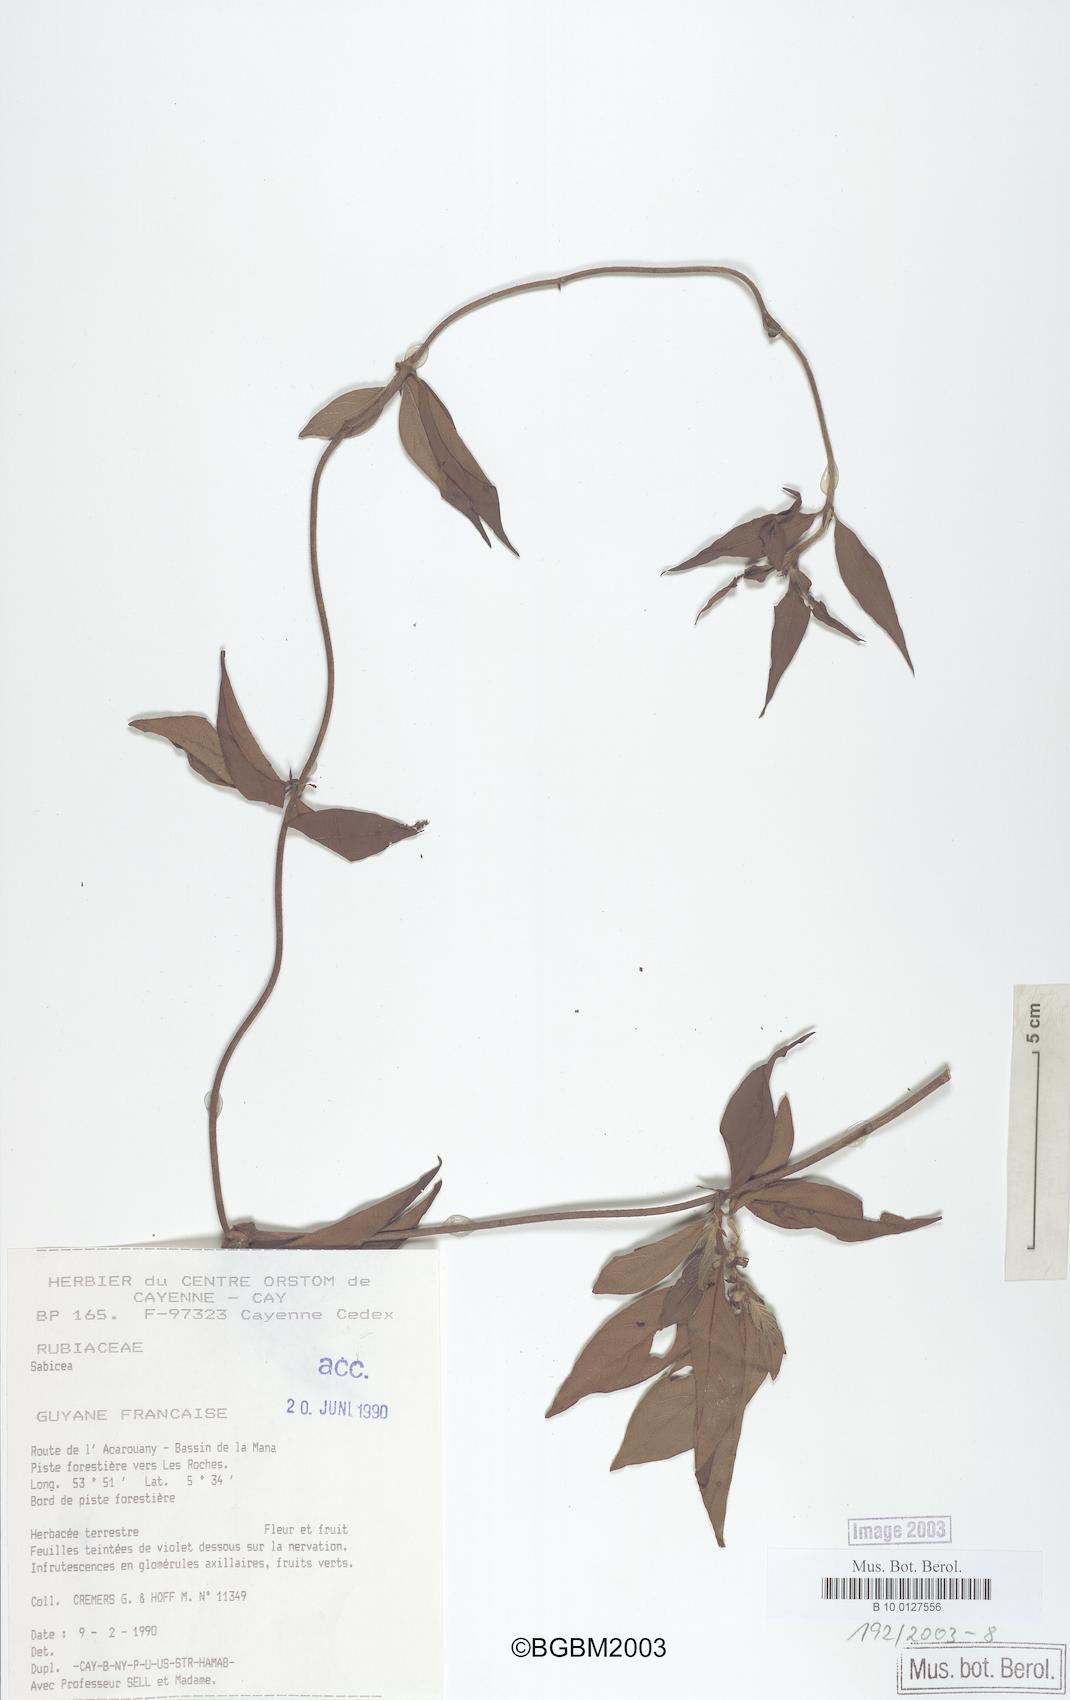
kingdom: Plantae
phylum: Tracheophyta
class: Magnoliopsida
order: Gentianales
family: Rubiaceae
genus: Sabicea
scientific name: Sabicea
